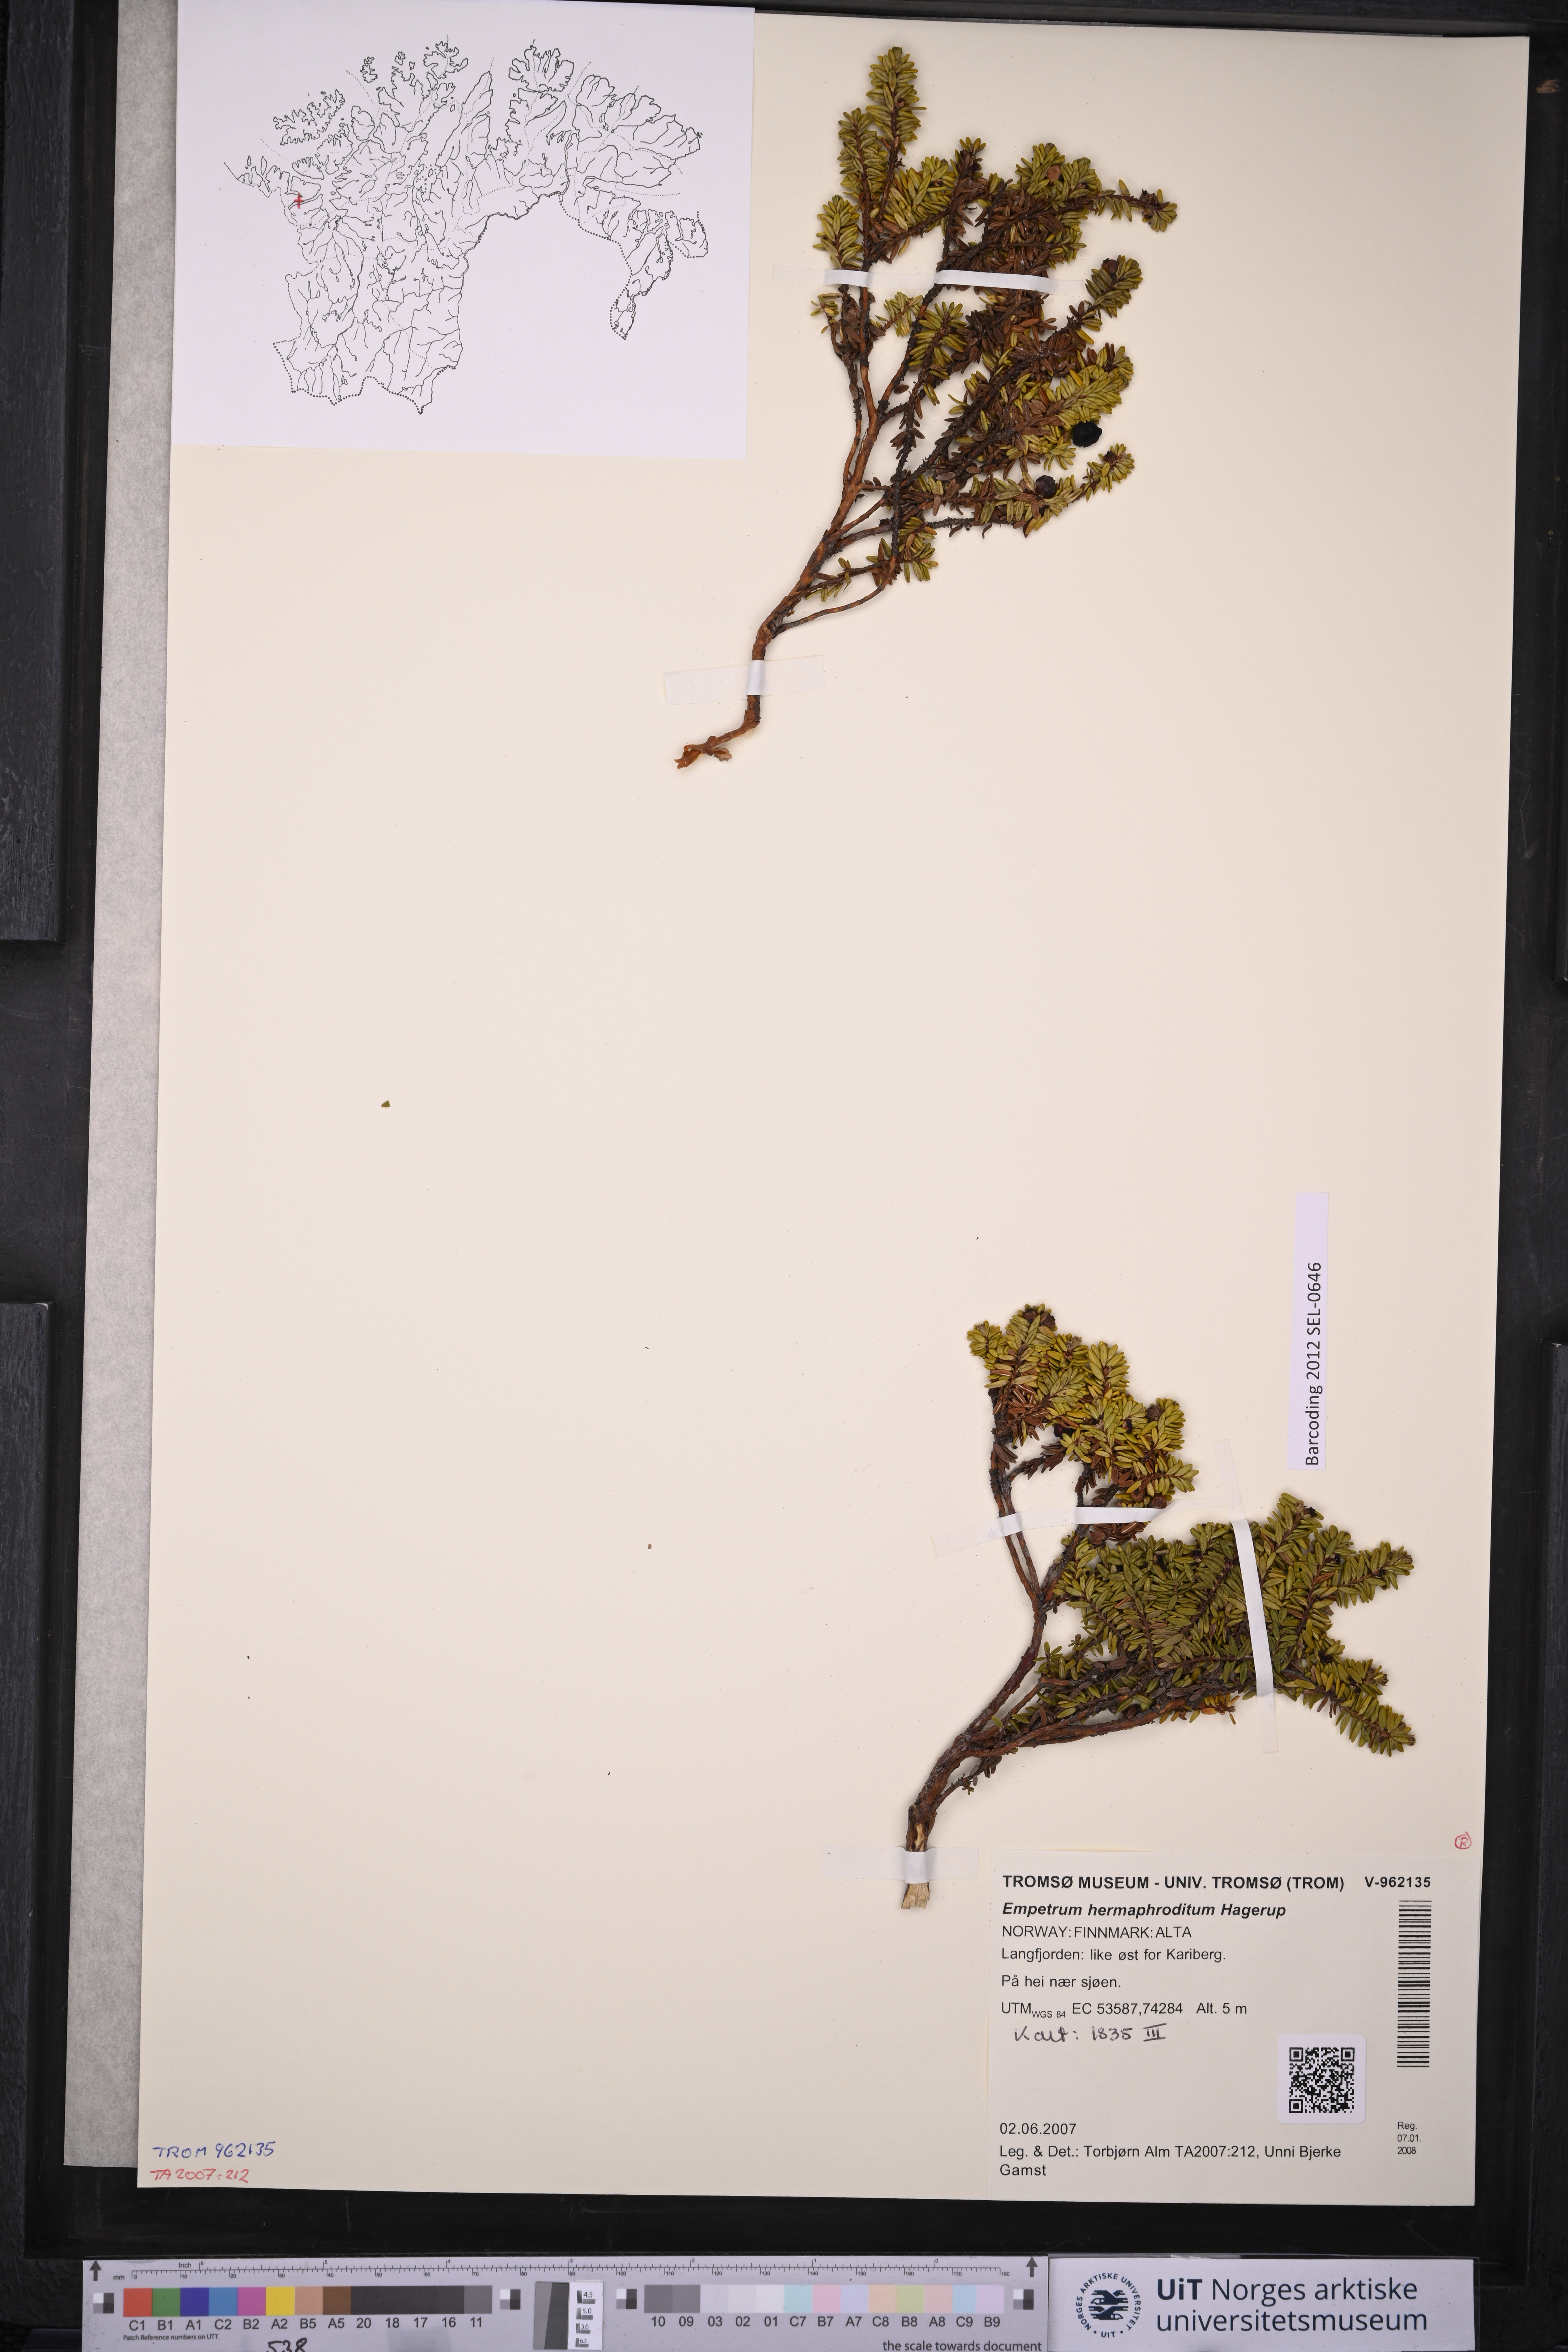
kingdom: Plantae
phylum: Tracheophyta
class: Magnoliopsida
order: Ericales
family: Ericaceae
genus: Empetrum
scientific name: Empetrum hermaphroditum
